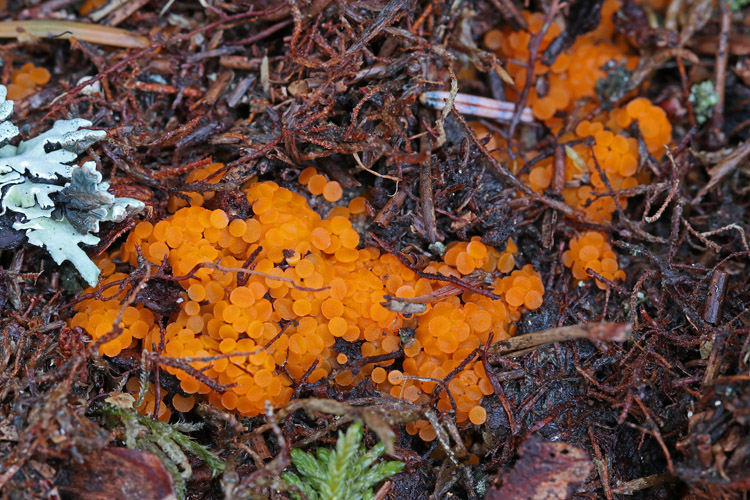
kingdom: Fungi
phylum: Ascomycota
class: Pezizomycetes
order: Pezizales
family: Pyronemataceae
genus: Byssonectria
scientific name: Byssonectria terrestris
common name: hjortebæger
